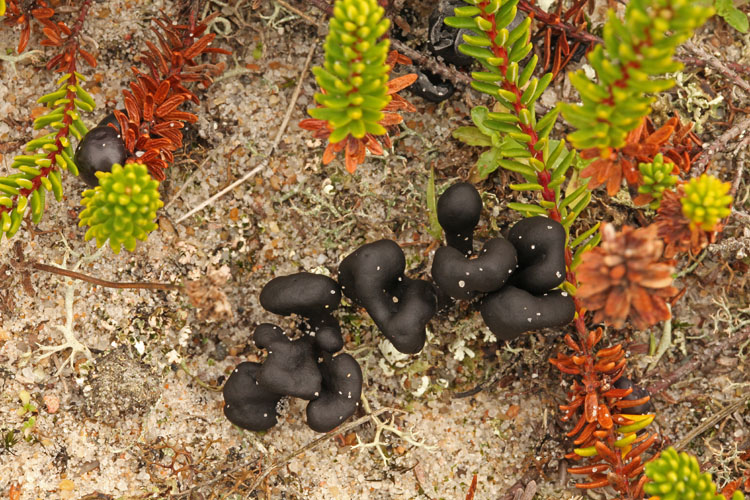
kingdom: Fungi
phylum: Ascomycota
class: Geoglossomycetes
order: Geoglossales
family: Geoglossaceae
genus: Sabuloglossum
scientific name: Sabuloglossum arenarium
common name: klit-jordtunge
